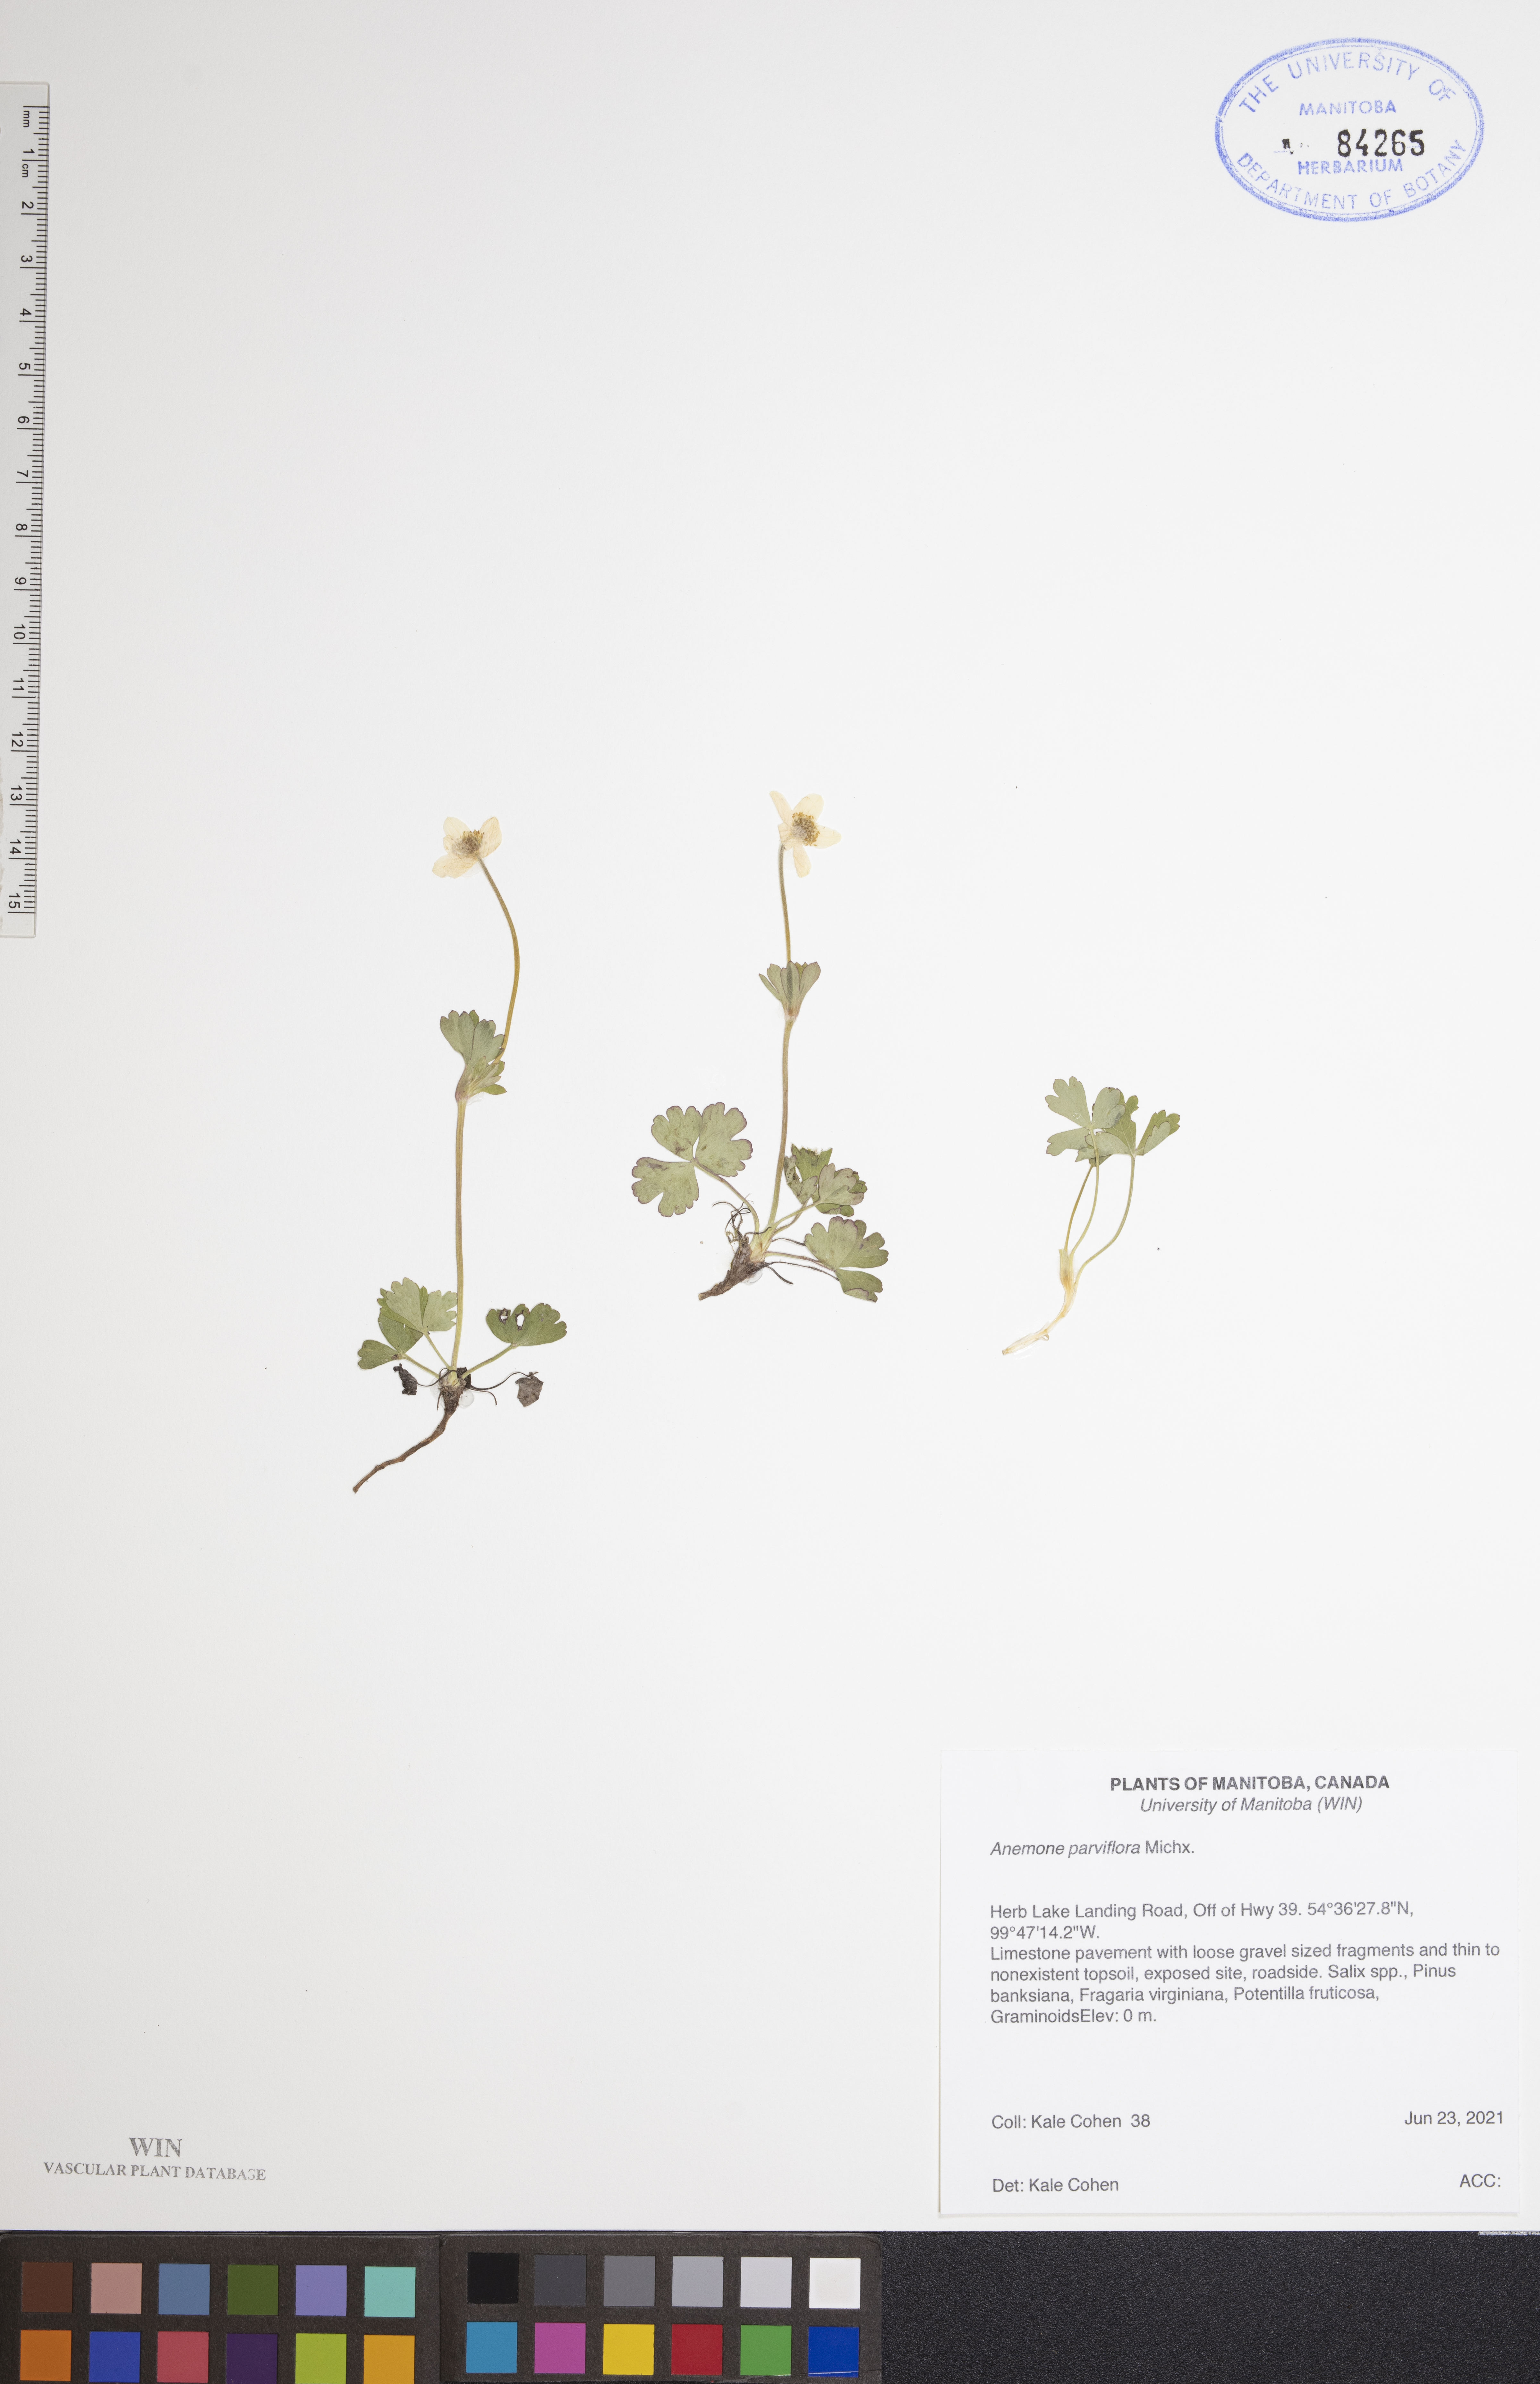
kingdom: Plantae
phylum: Tracheophyta
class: Magnoliopsida
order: Ranunculales
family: Ranunculaceae
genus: Anemone
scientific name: Anemone parviflora
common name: Northern anemone
